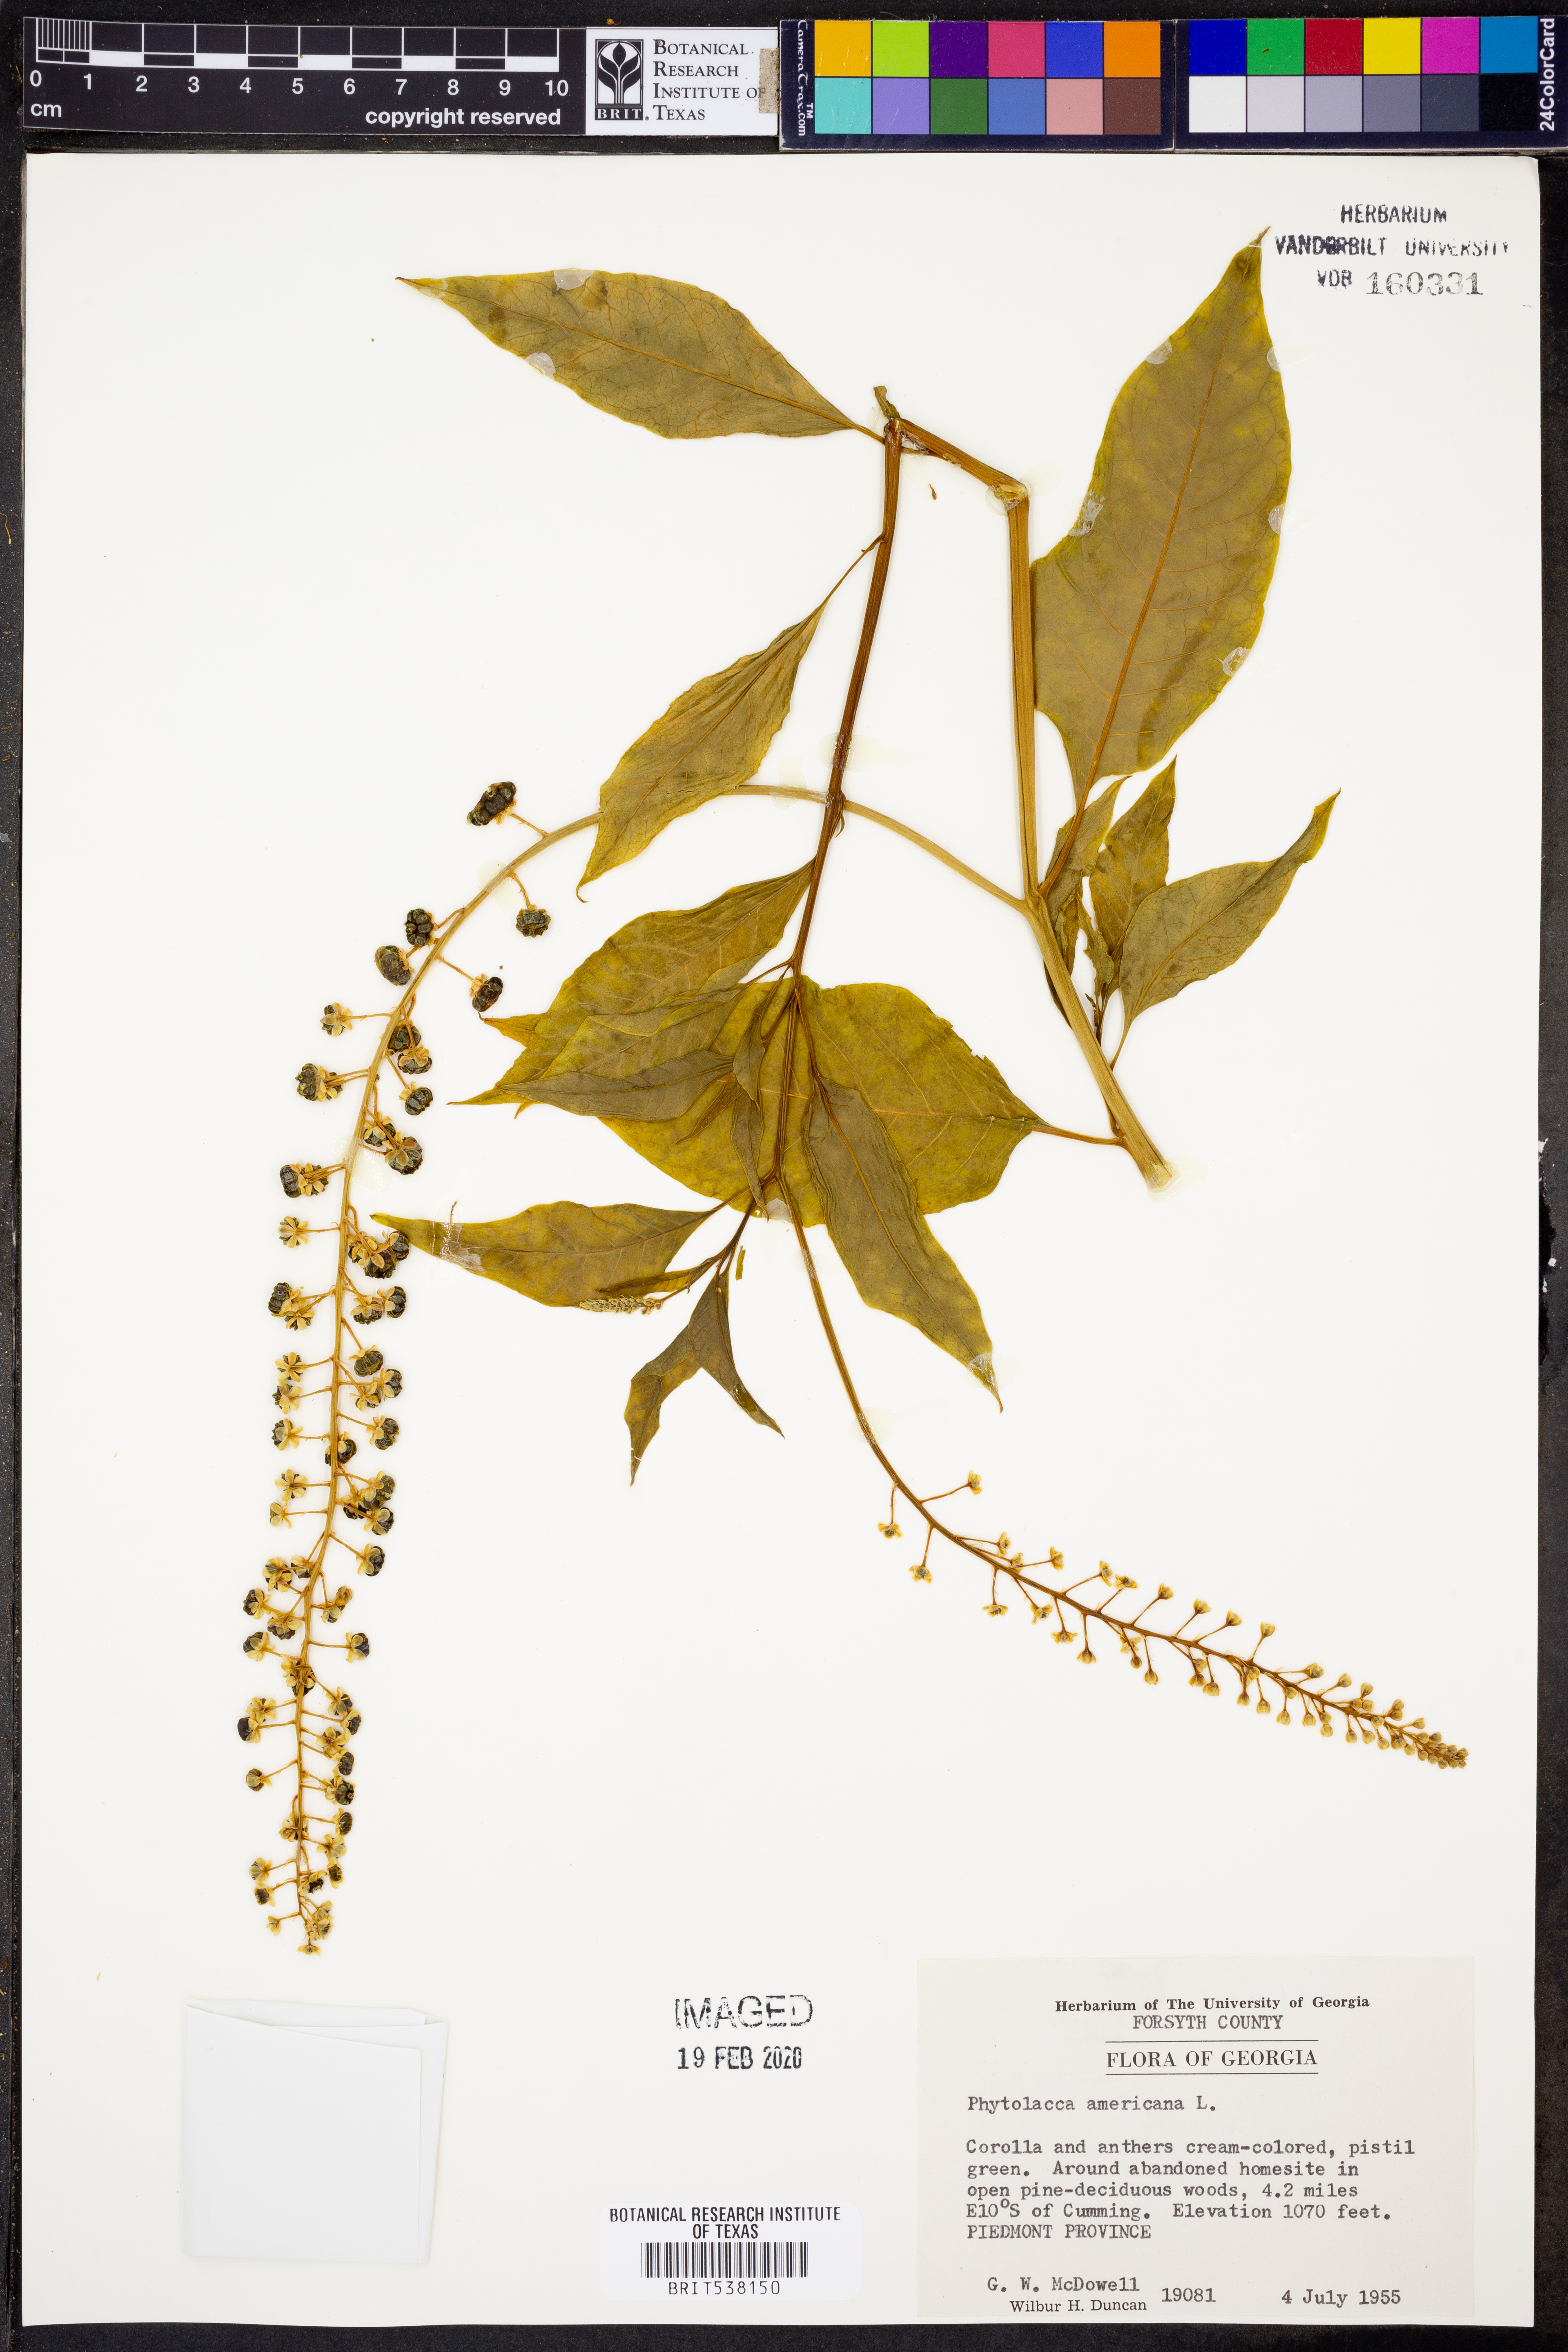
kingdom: Plantae
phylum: Tracheophyta
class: Magnoliopsida
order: Caryophyllales
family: Phytolaccaceae
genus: Phytolacca
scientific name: Phytolacca americana
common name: American pokeweed
